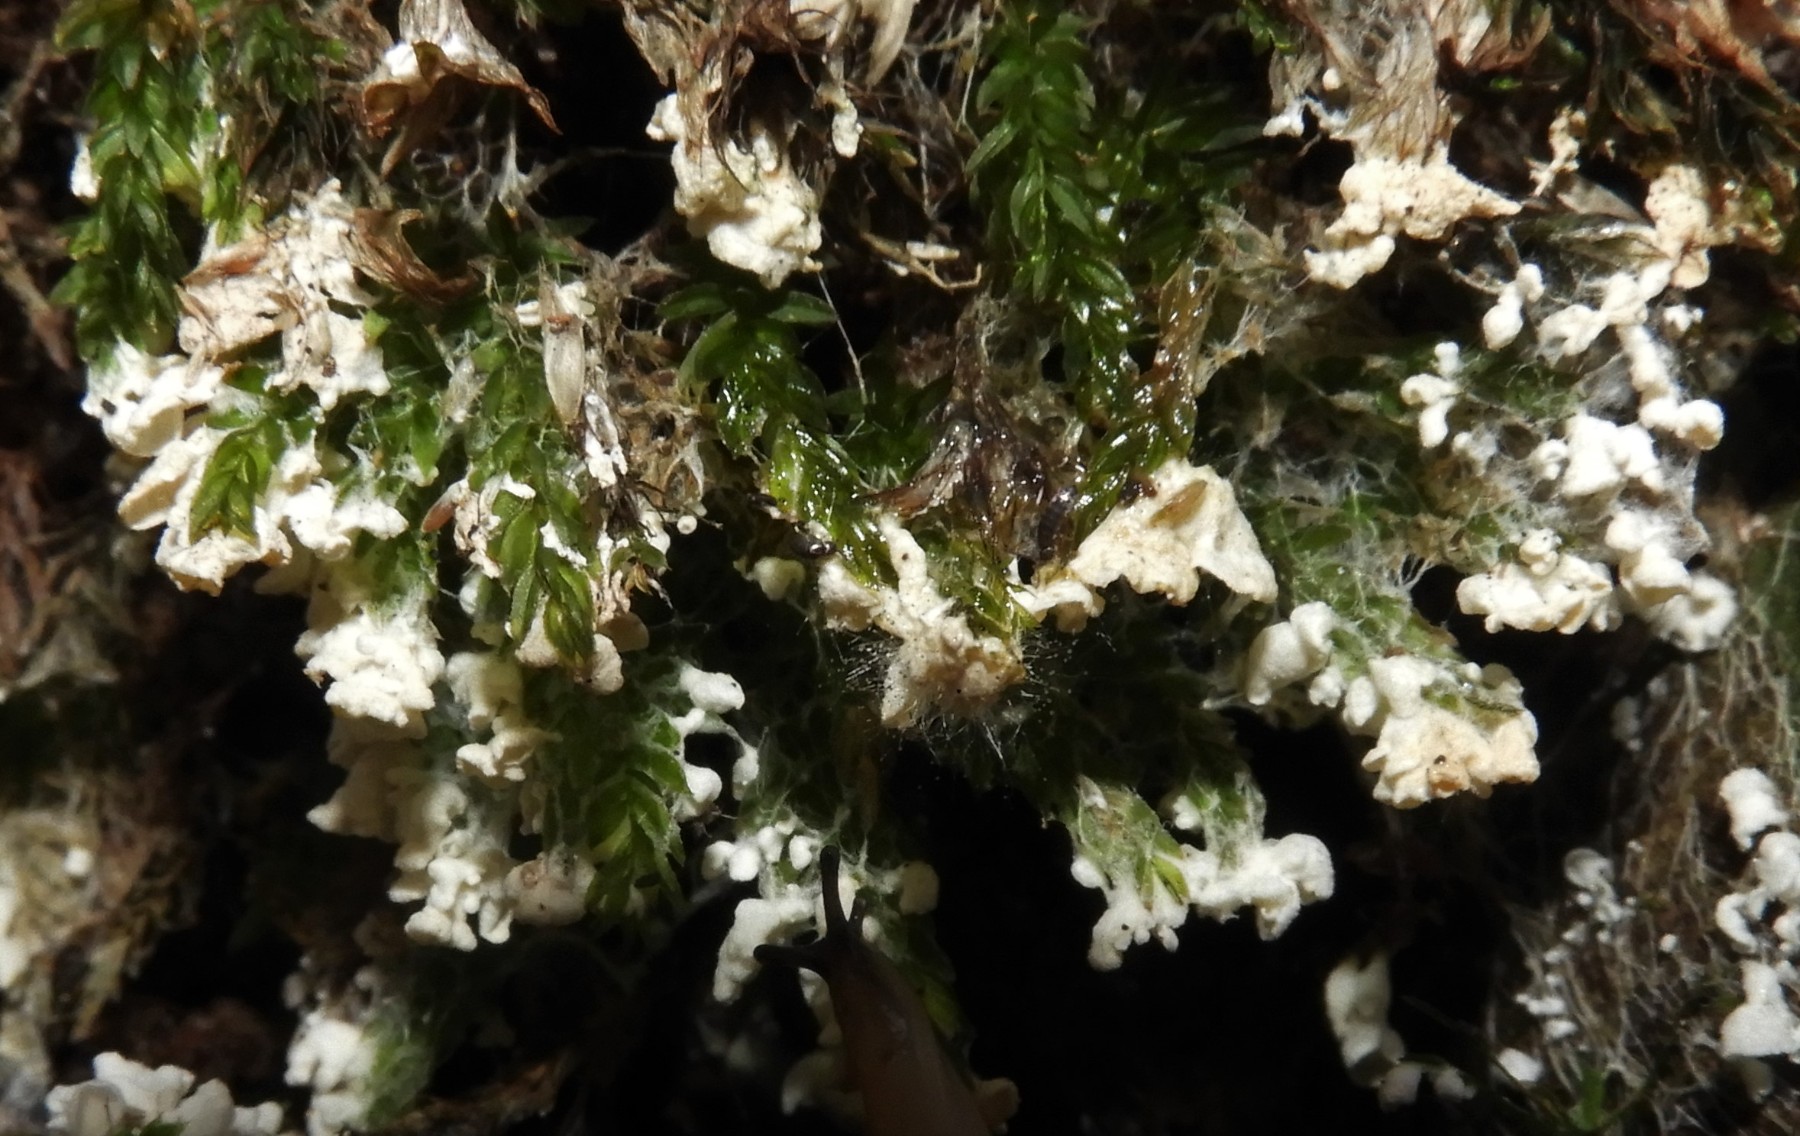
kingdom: Fungi
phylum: Basidiomycota
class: Agaricomycetes
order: Agaricales
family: Tricholomataceae
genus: Rimbachia
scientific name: Rimbachia arachnoidea
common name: Almindelig mosskål
